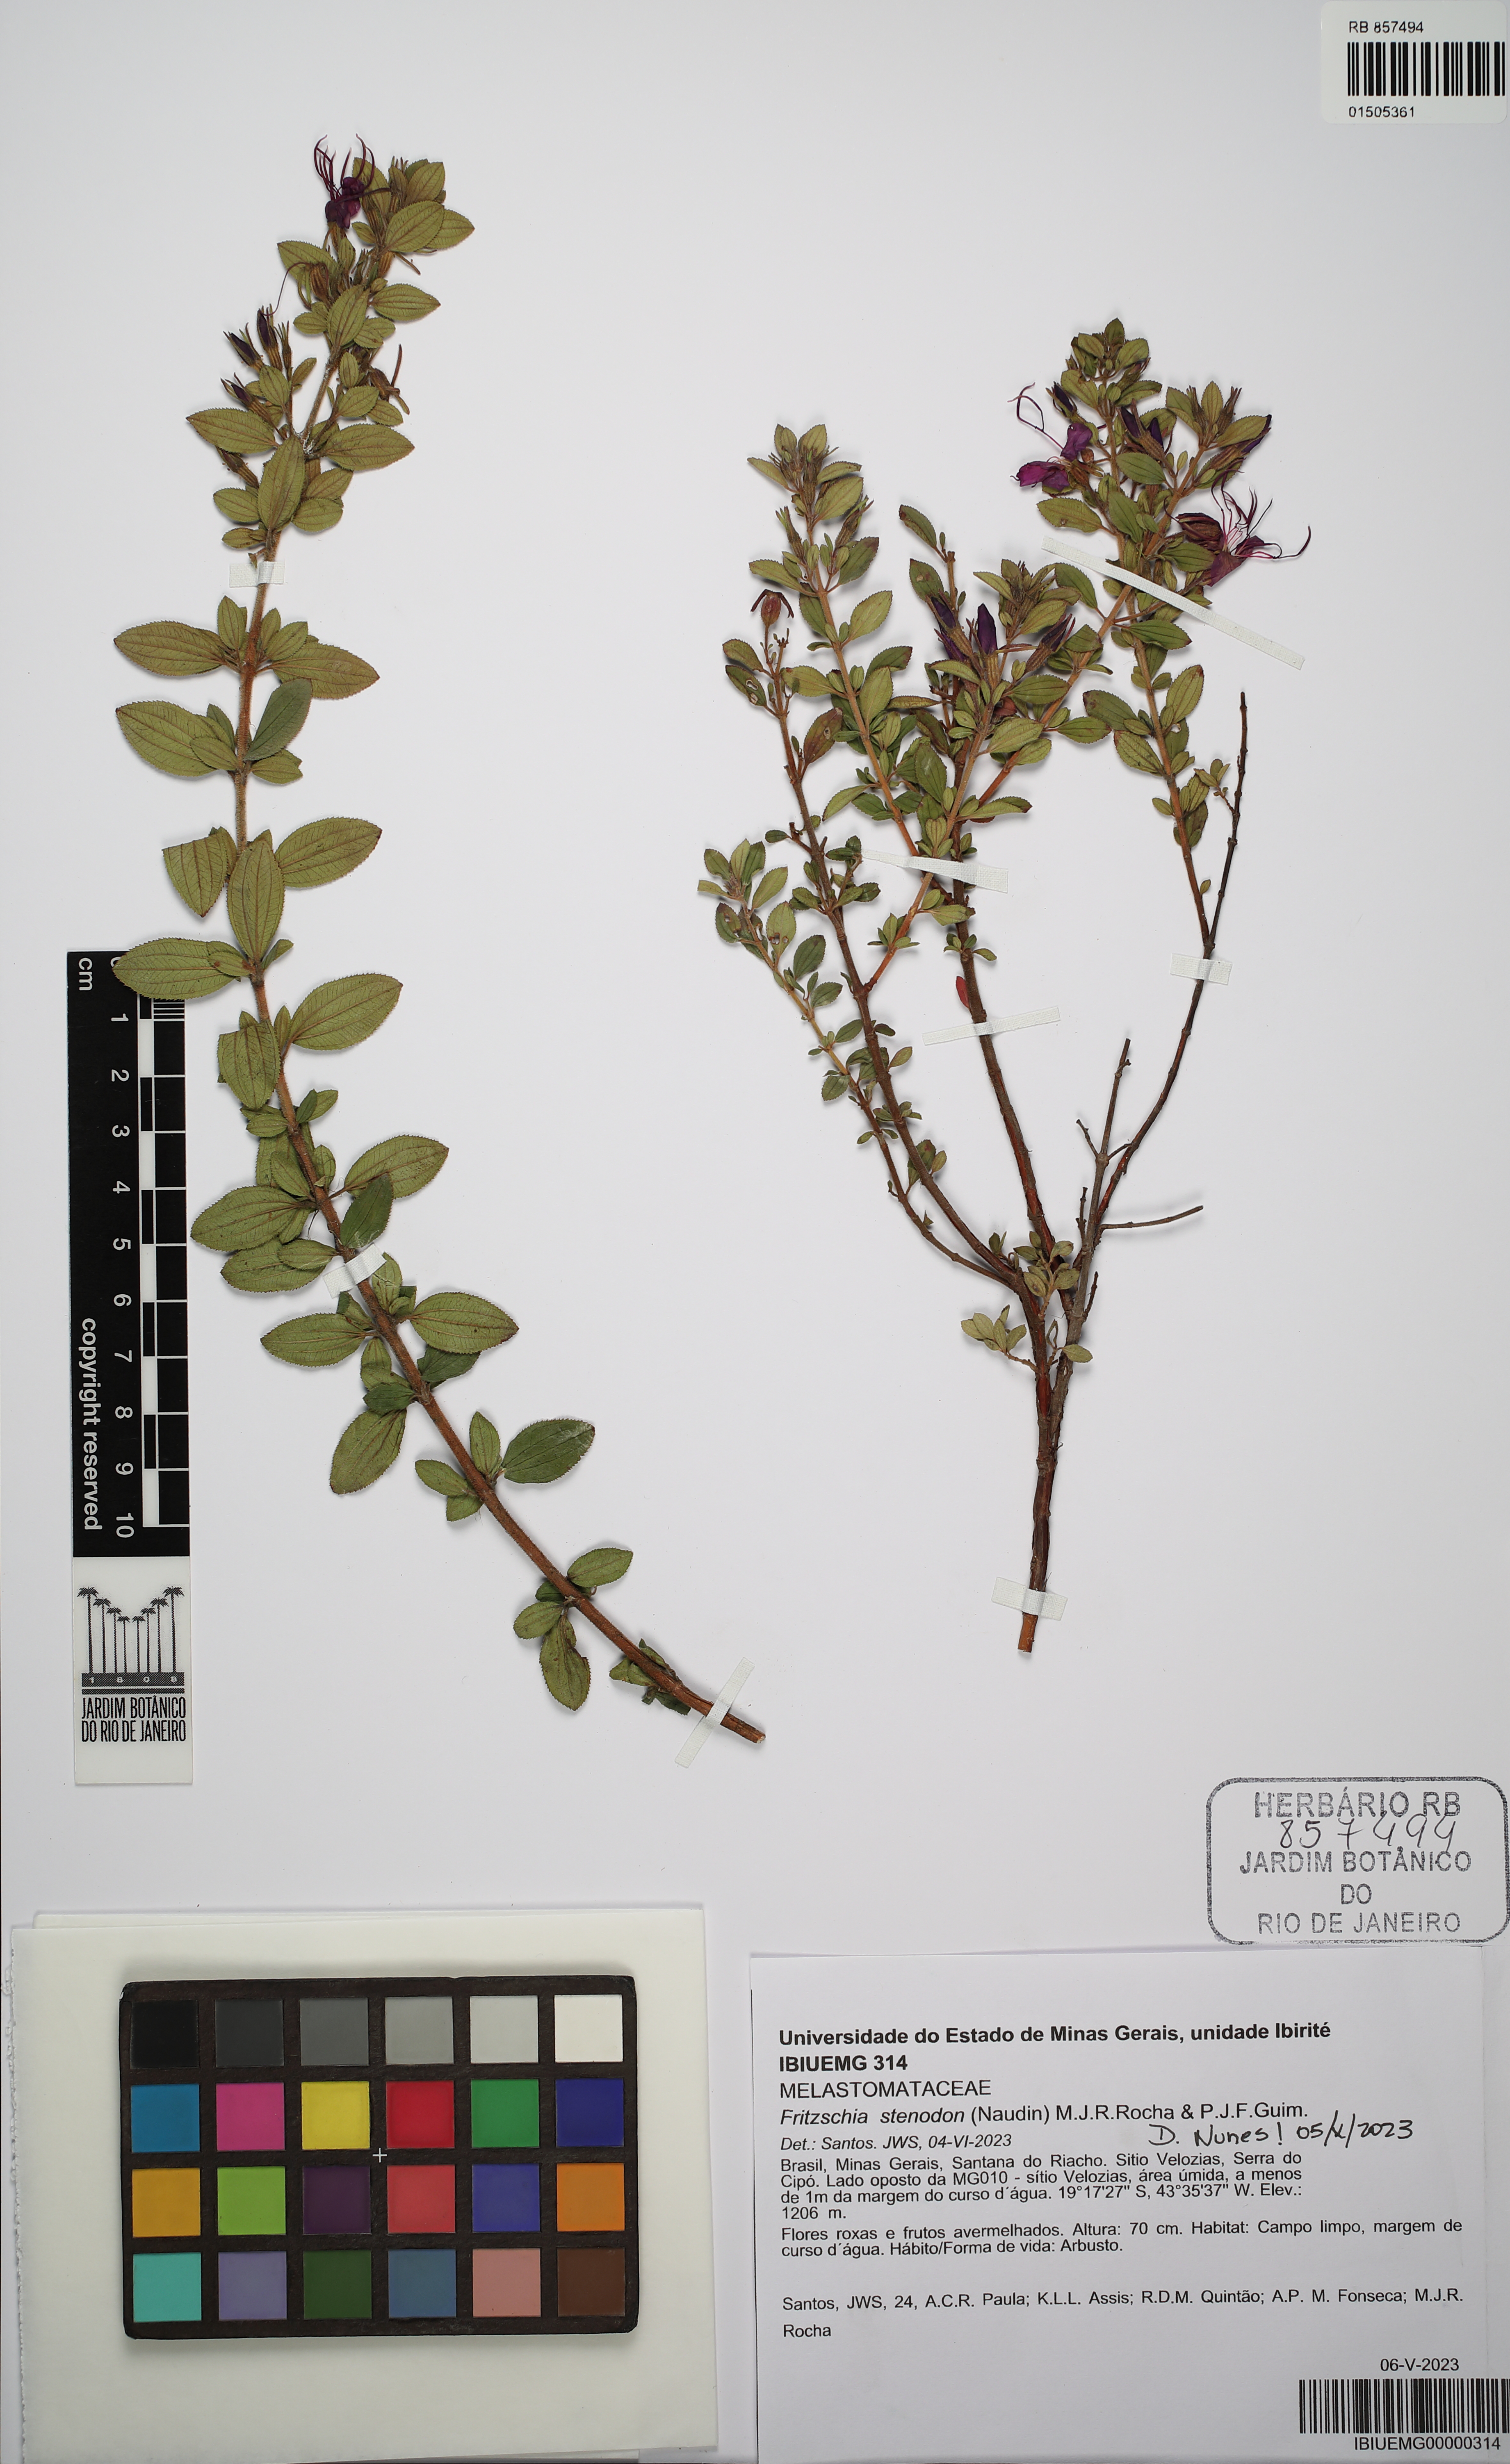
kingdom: Plantae
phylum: Tracheophyta
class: Magnoliopsida
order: Myrtales
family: Melastomataceae
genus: Fritzschia
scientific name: Fritzschia stenodon
